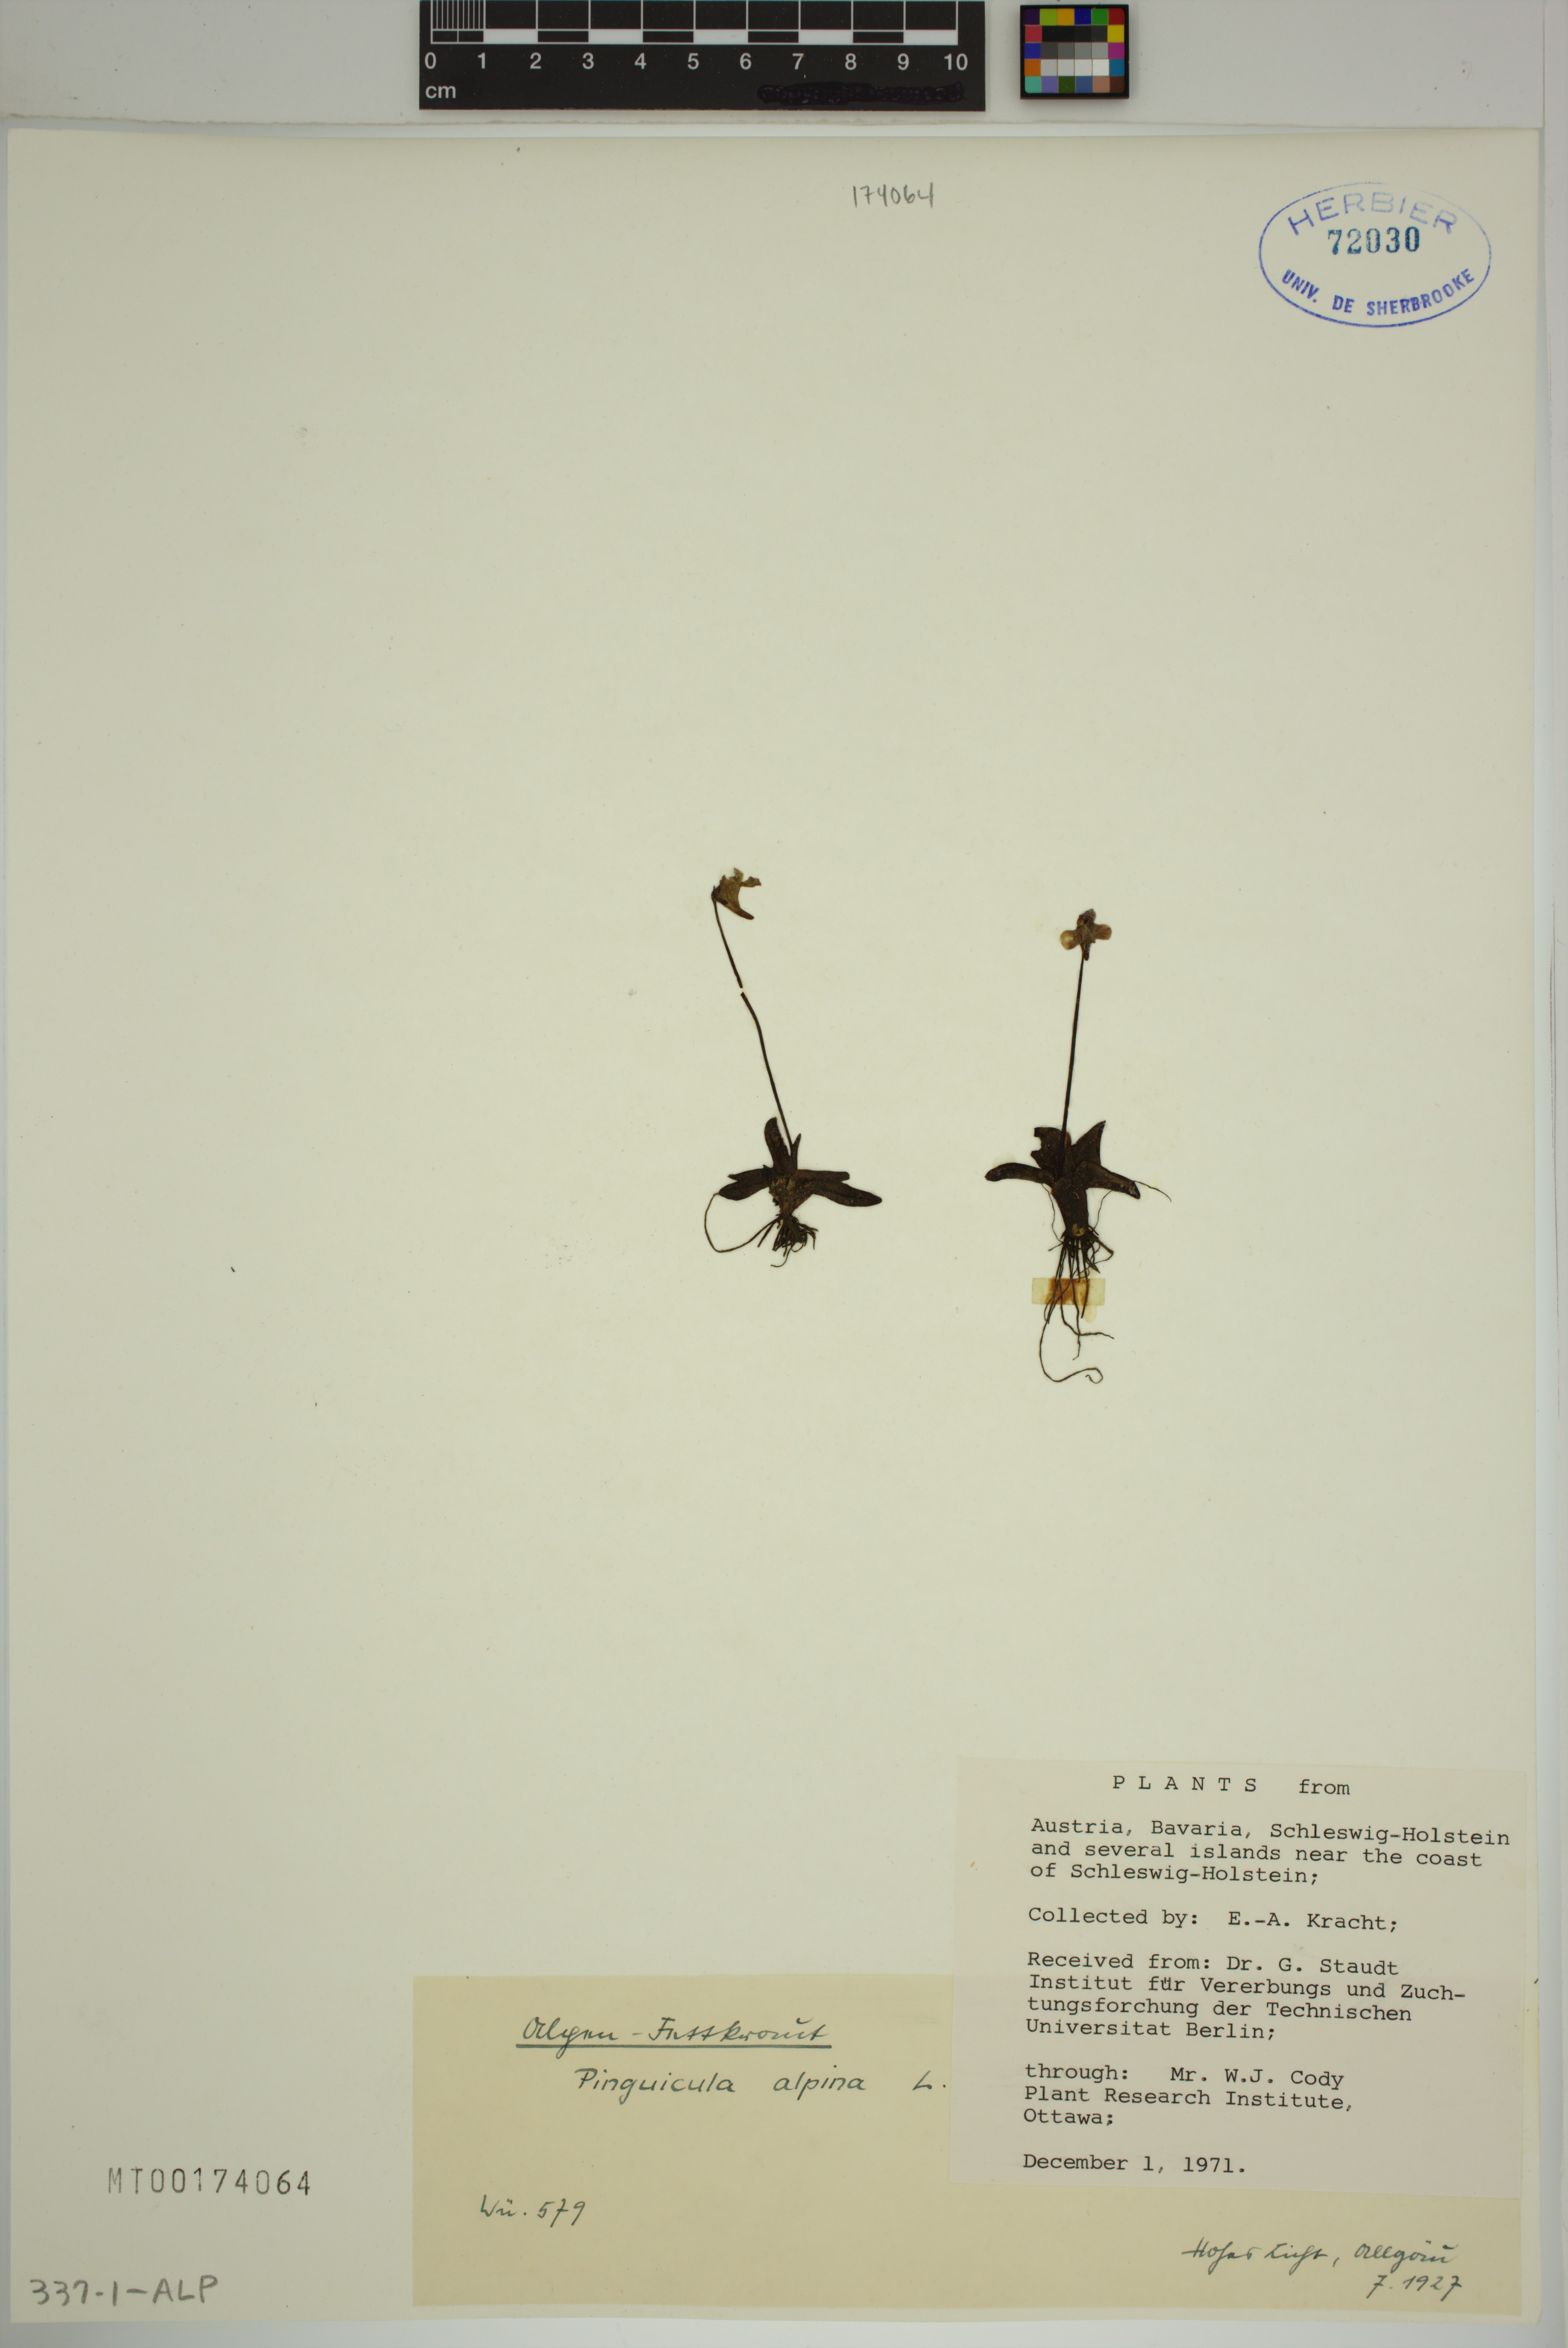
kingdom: Plantae
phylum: Tracheophyta
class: Magnoliopsida
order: Lamiales
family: Lentibulariaceae
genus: Pinguicula
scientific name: Pinguicula alpina
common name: Alpine butterwort
